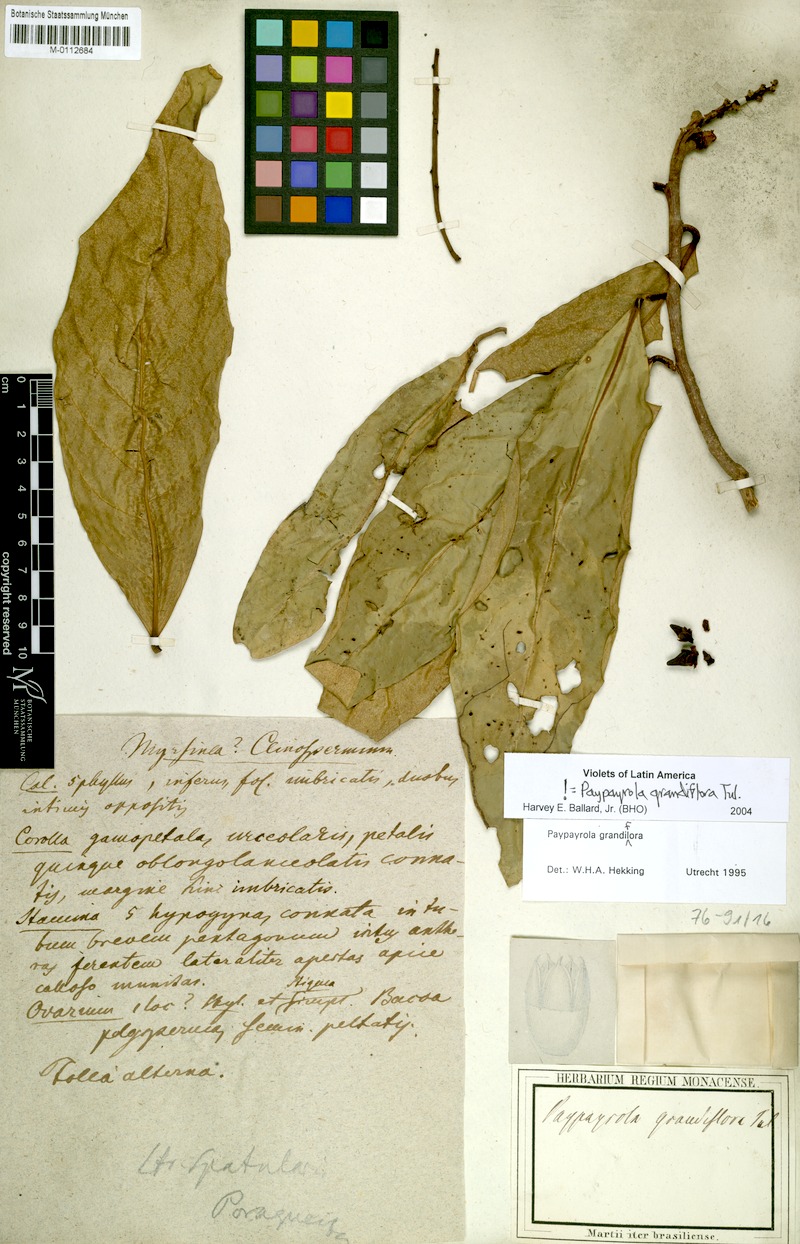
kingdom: Plantae
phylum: Tracheophyta
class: Magnoliopsida
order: Malpighiales
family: Violaceae
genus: Paypayrola
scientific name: Paypayrola grandiflora
